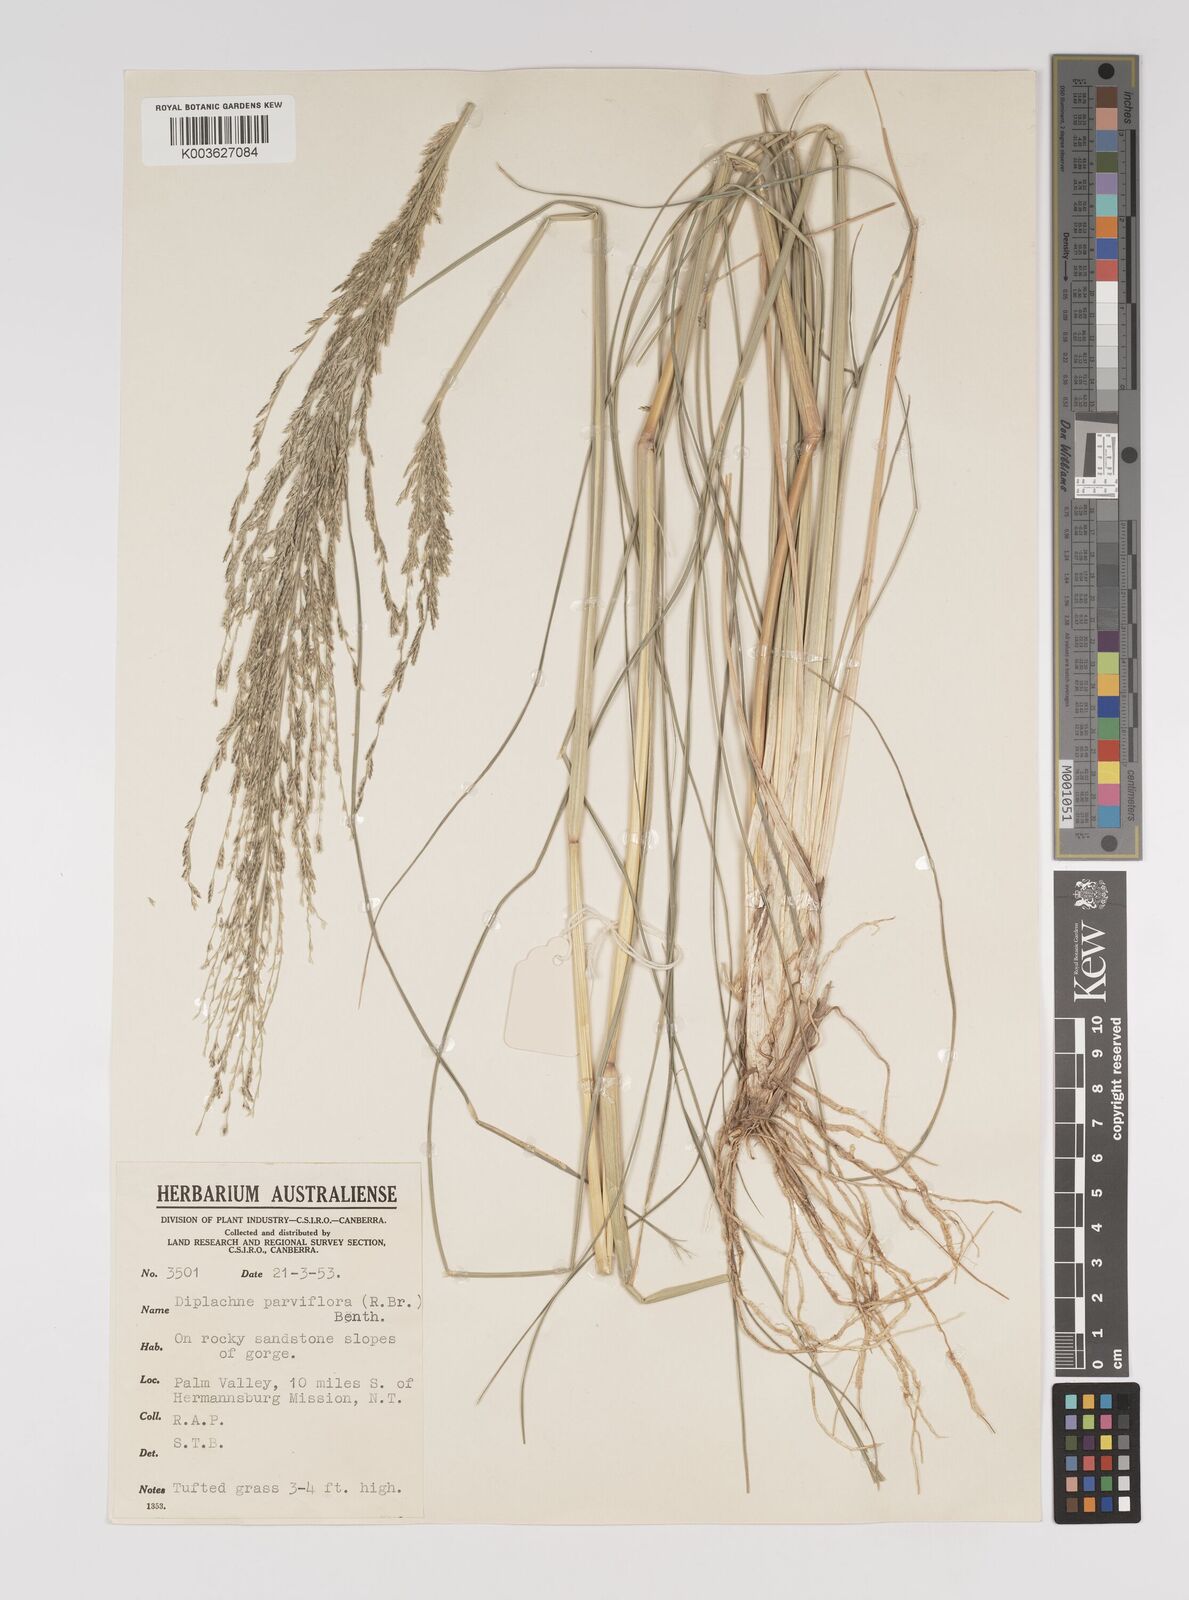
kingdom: Plantae
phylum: Tracheophyta
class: Liliopsida
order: Poales
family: Poaceae
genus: Diplachne
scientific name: Diplachne fusca
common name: Brown beetle grass
